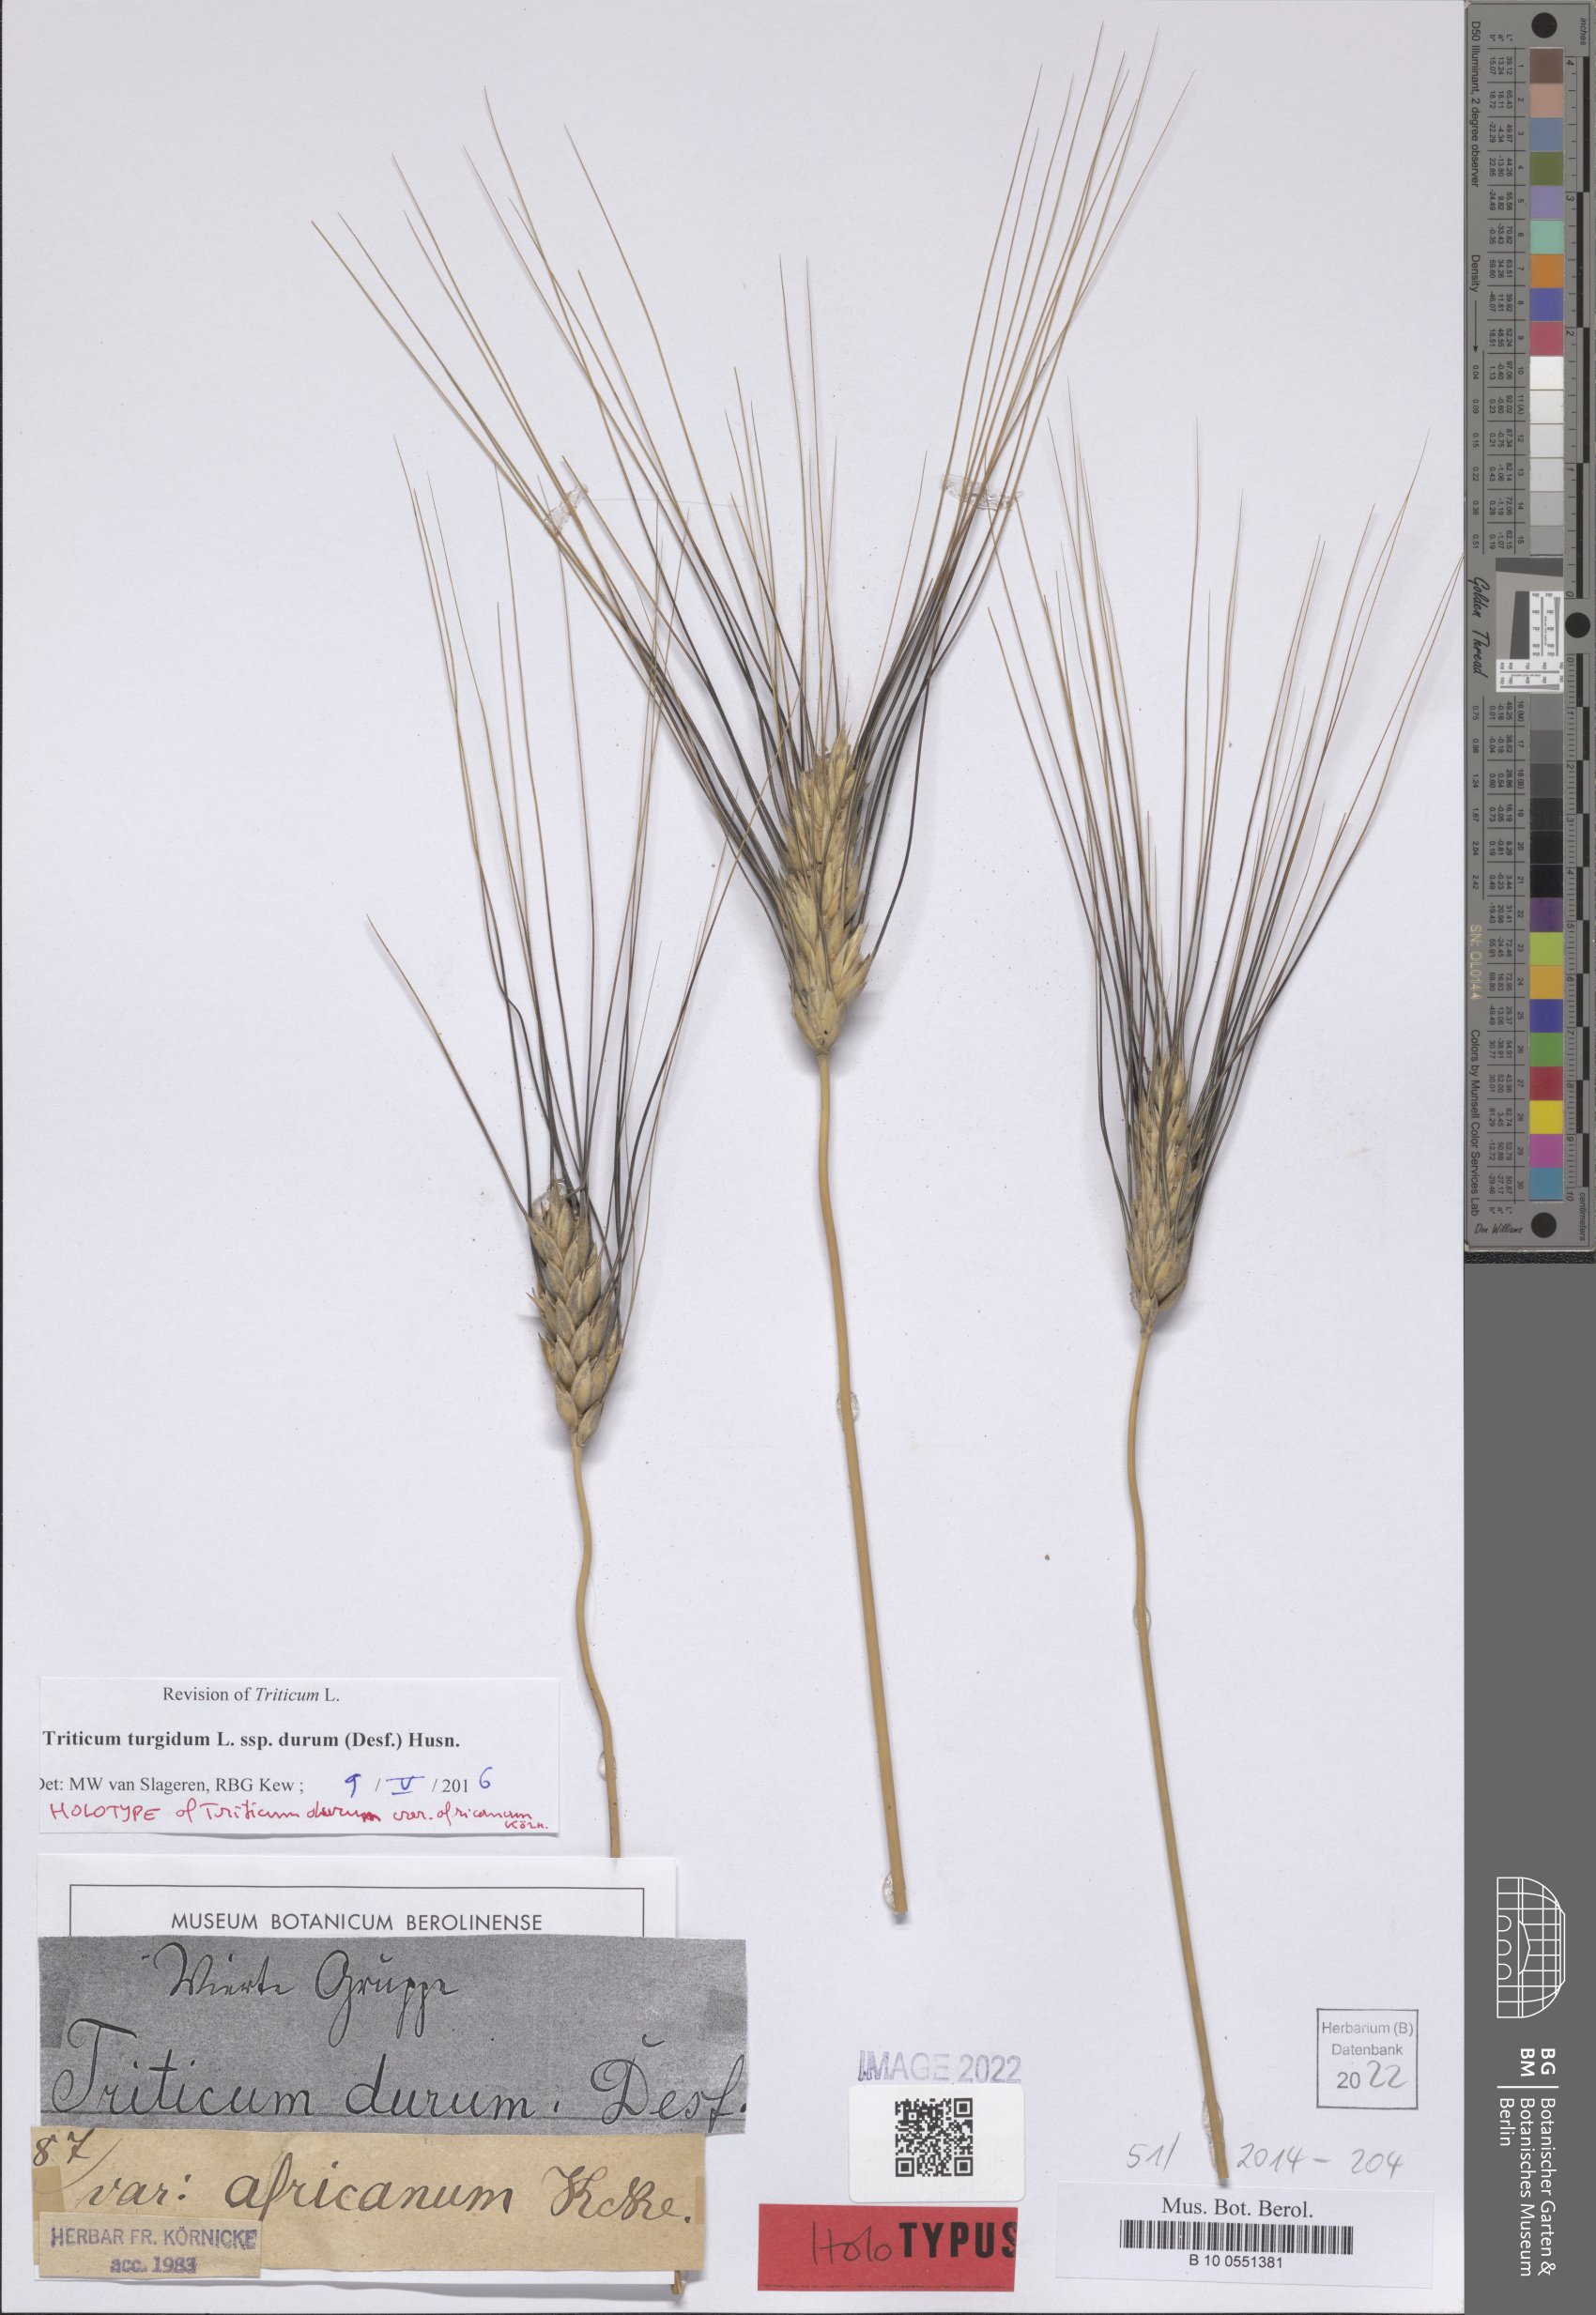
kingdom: Plantae
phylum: Tracheophyta
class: Liliopsida
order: Poales
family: Poaceae
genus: Triticum
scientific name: Triticum turgidum
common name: Rivet wheat
